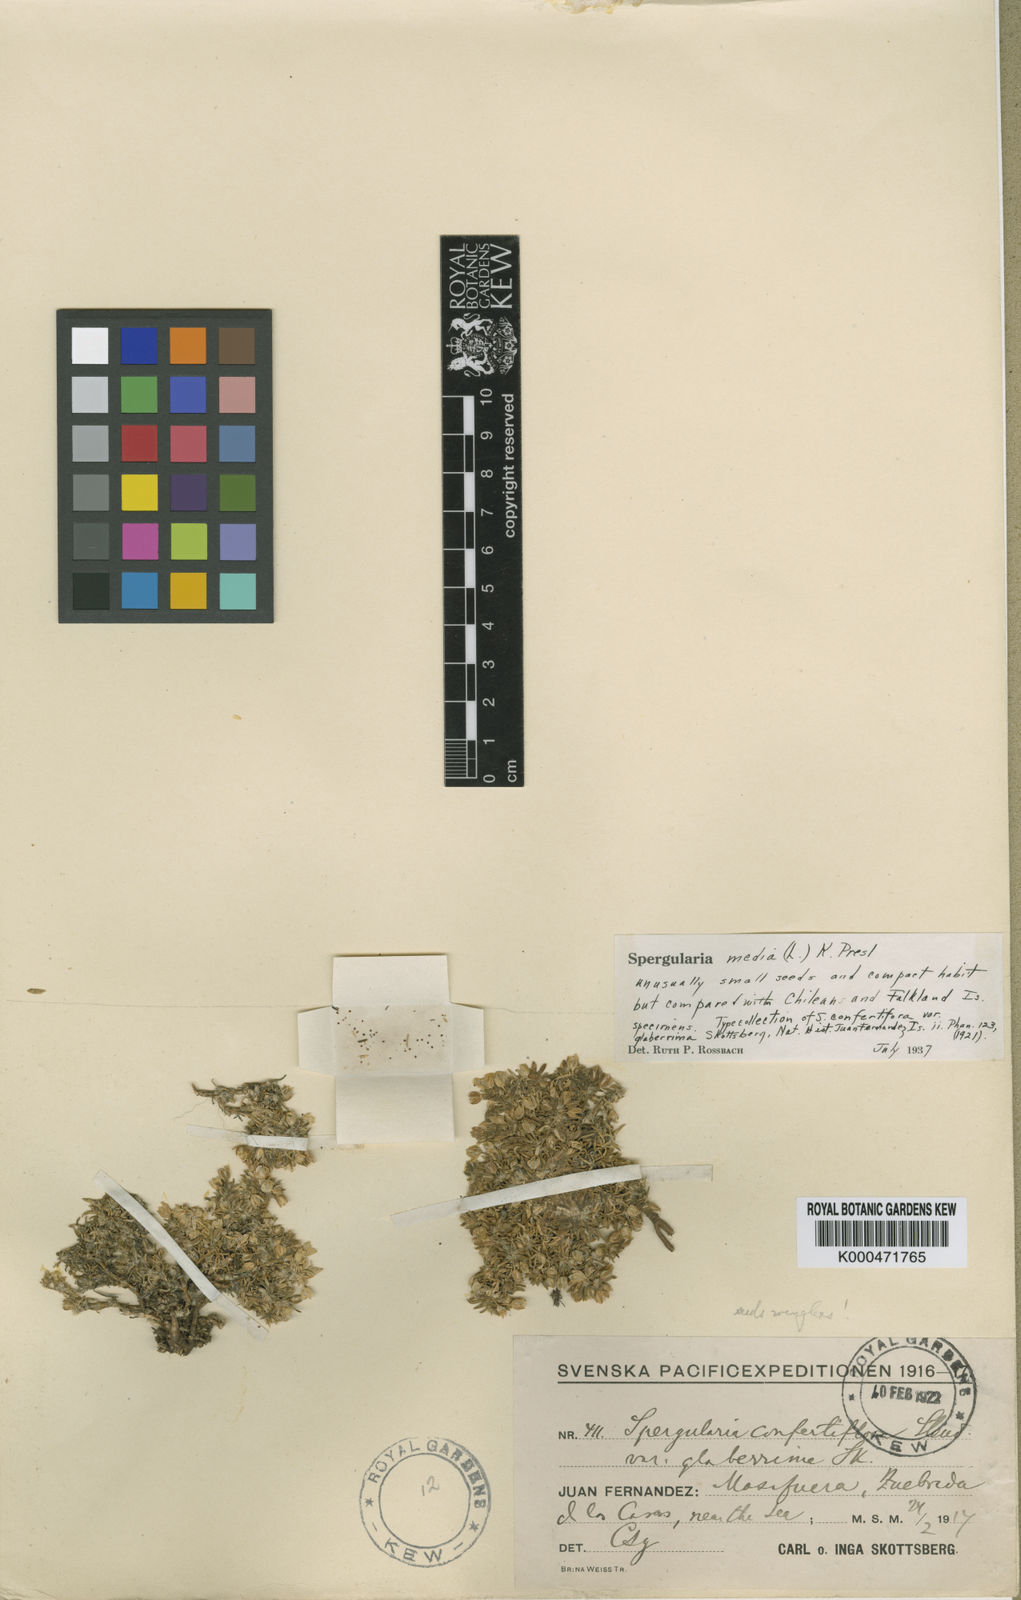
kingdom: Plantae
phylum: Tracheophyta
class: Magnoliopsida
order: Caryophyllales
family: Caryophyllaceae
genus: Spergularia
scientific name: Spergularia media
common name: Greater sea-spurrey
